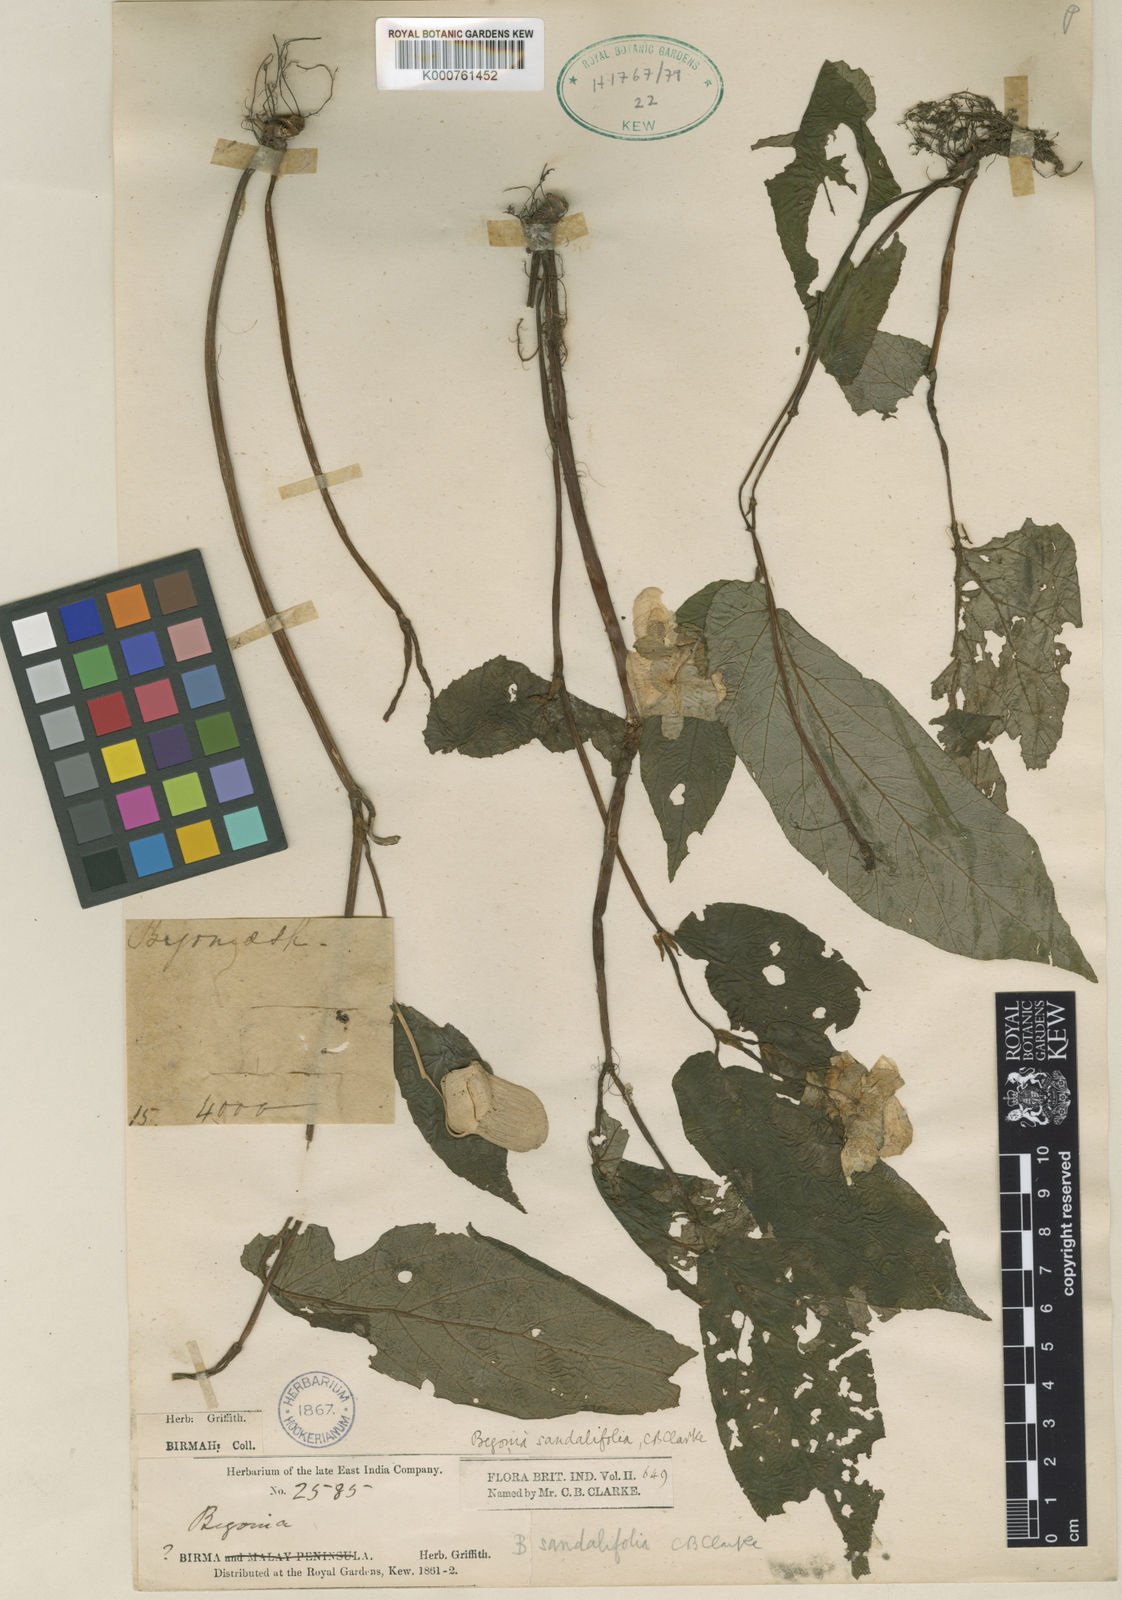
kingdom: Plantae
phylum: Tracheophyta
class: Magnoliopsida
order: Cucurbitales
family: Begoniaceae
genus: Begonia
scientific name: Begonia sandalifolia
